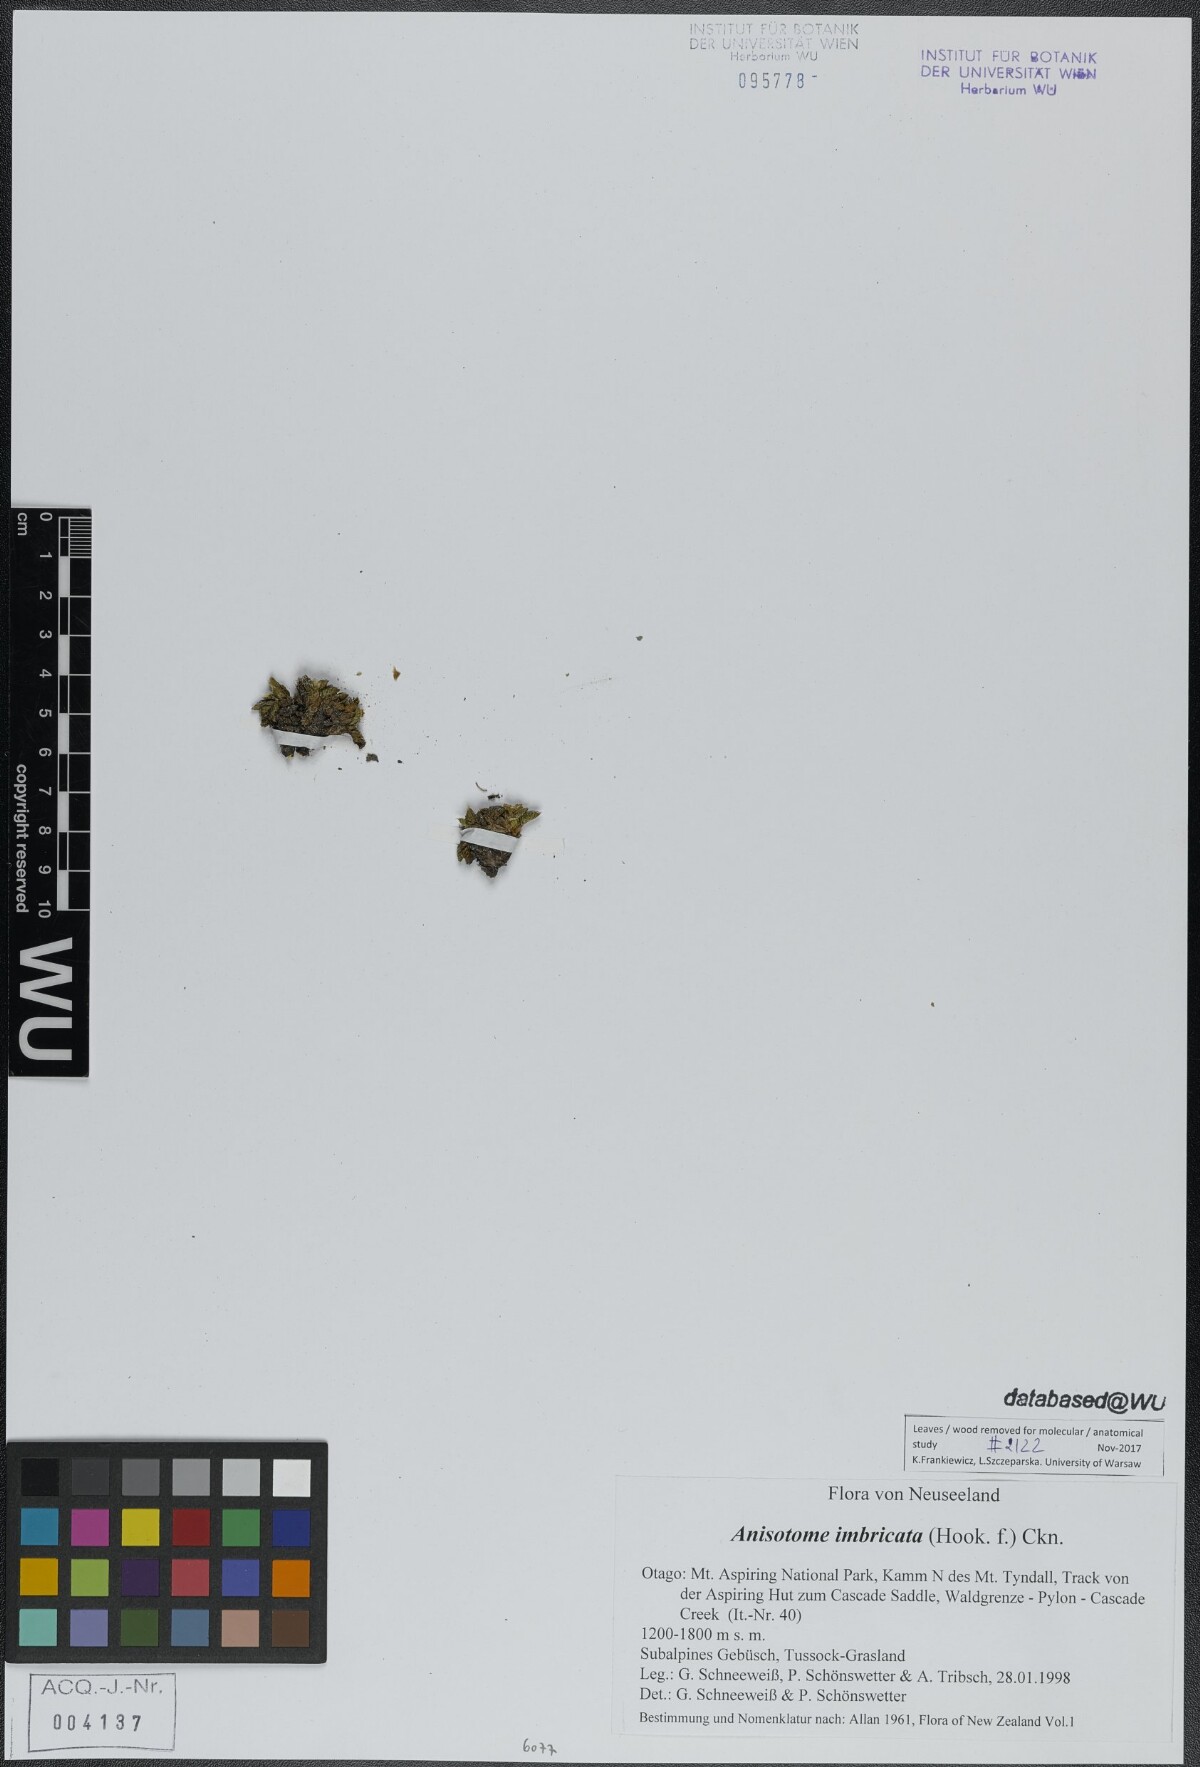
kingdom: Plantae
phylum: Tracheophyta
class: Magnoliopsida
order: Apiales
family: Apiaceae
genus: Anisotome
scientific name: Anisotome imbricata
